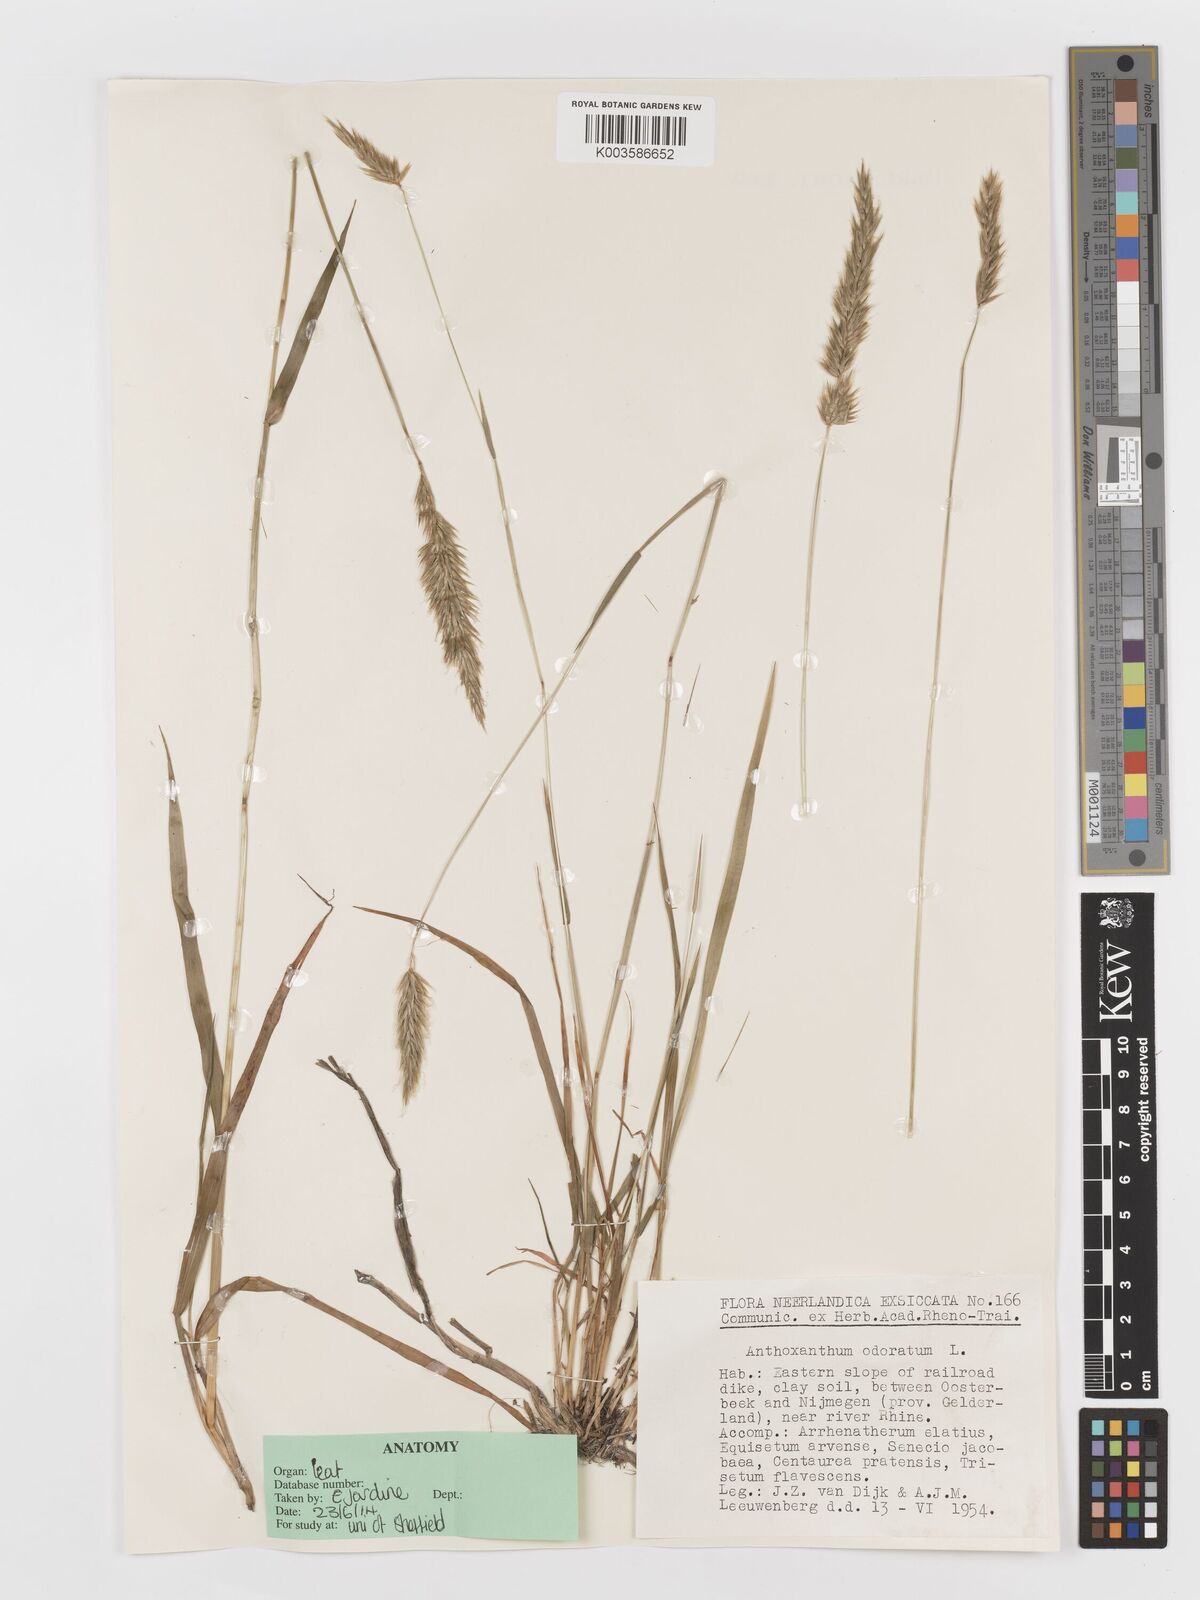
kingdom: Plantae
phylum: Tracheophyta
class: Liliopsida
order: Poales
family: Poaceae
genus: Anthoxanthum
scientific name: Anthoxanthum odoratum
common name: Sweet vernalgrass
